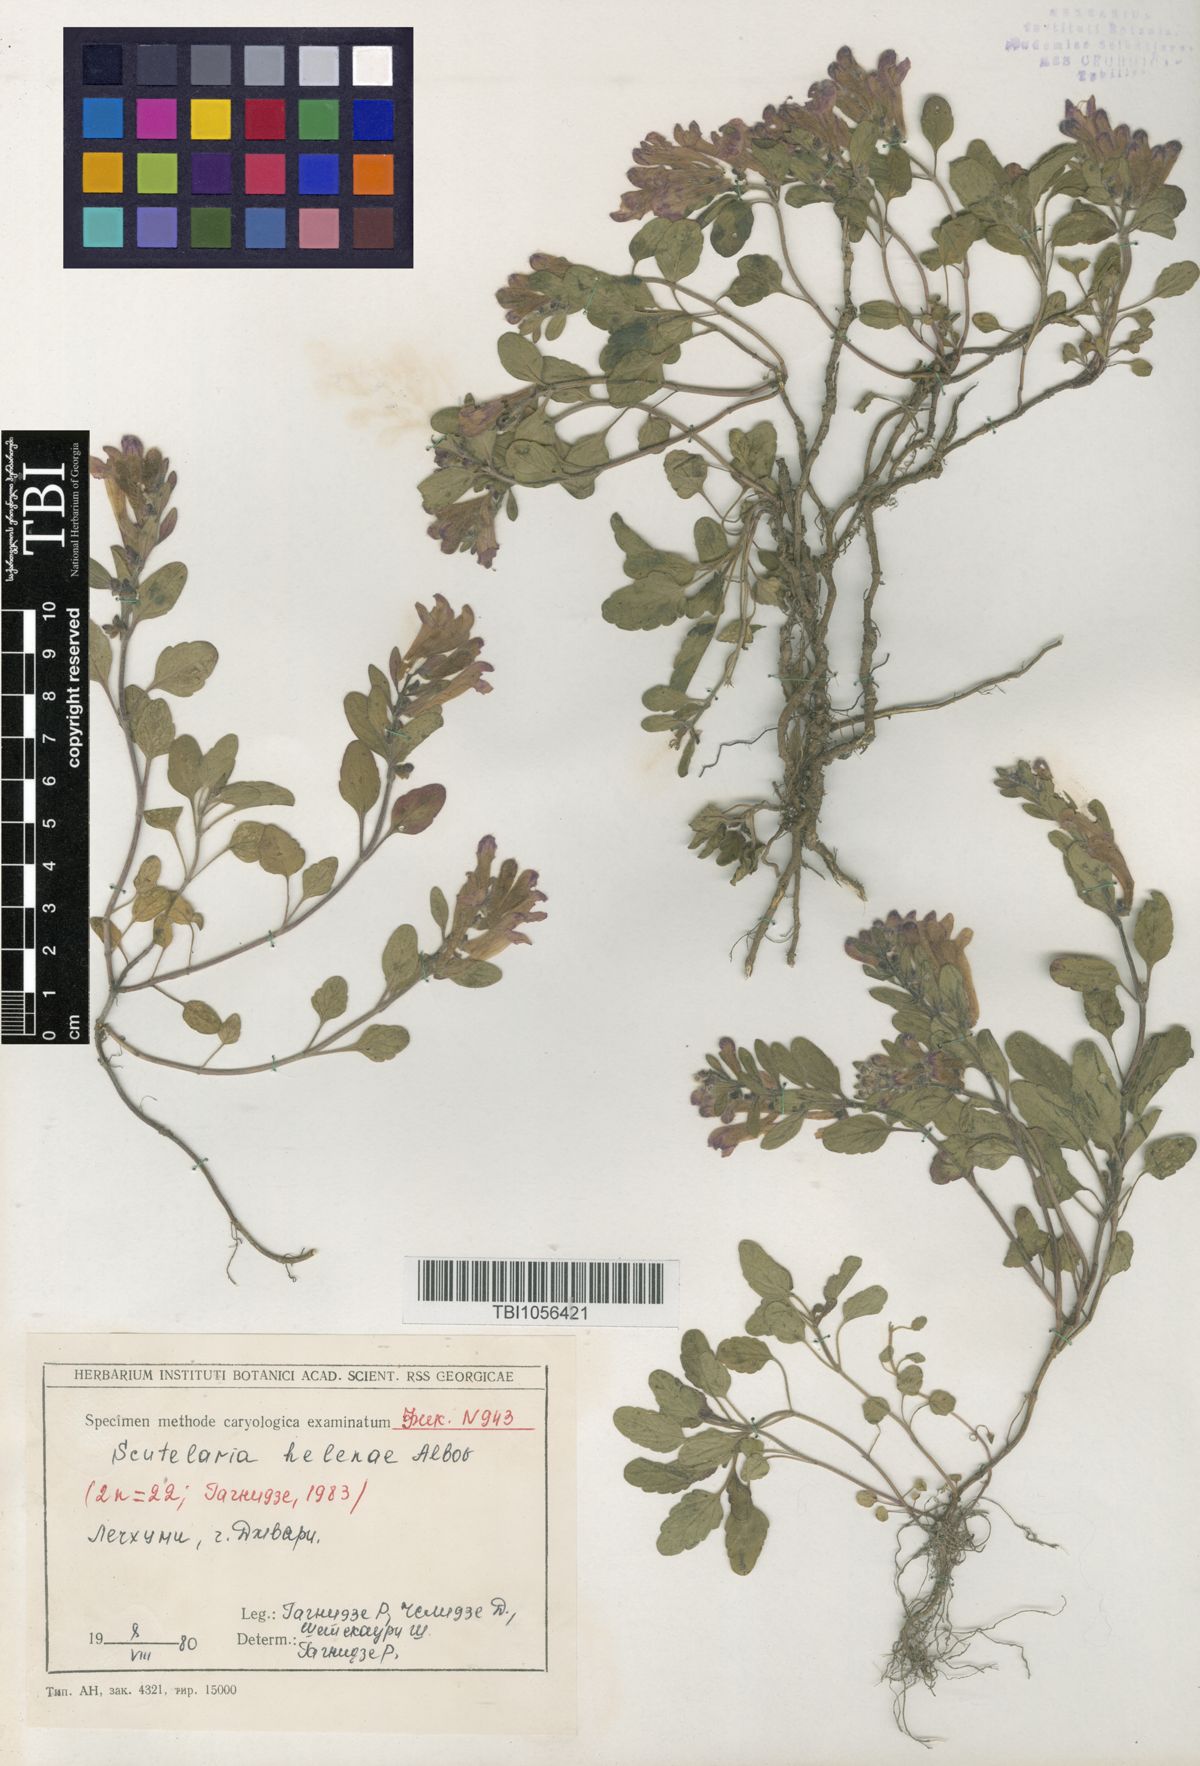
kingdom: Plantae
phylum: Tracheophyta
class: Magnoliopsida
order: Lamiales
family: Lamiaceae
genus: Scutellaria
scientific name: Scutellaria helenae
